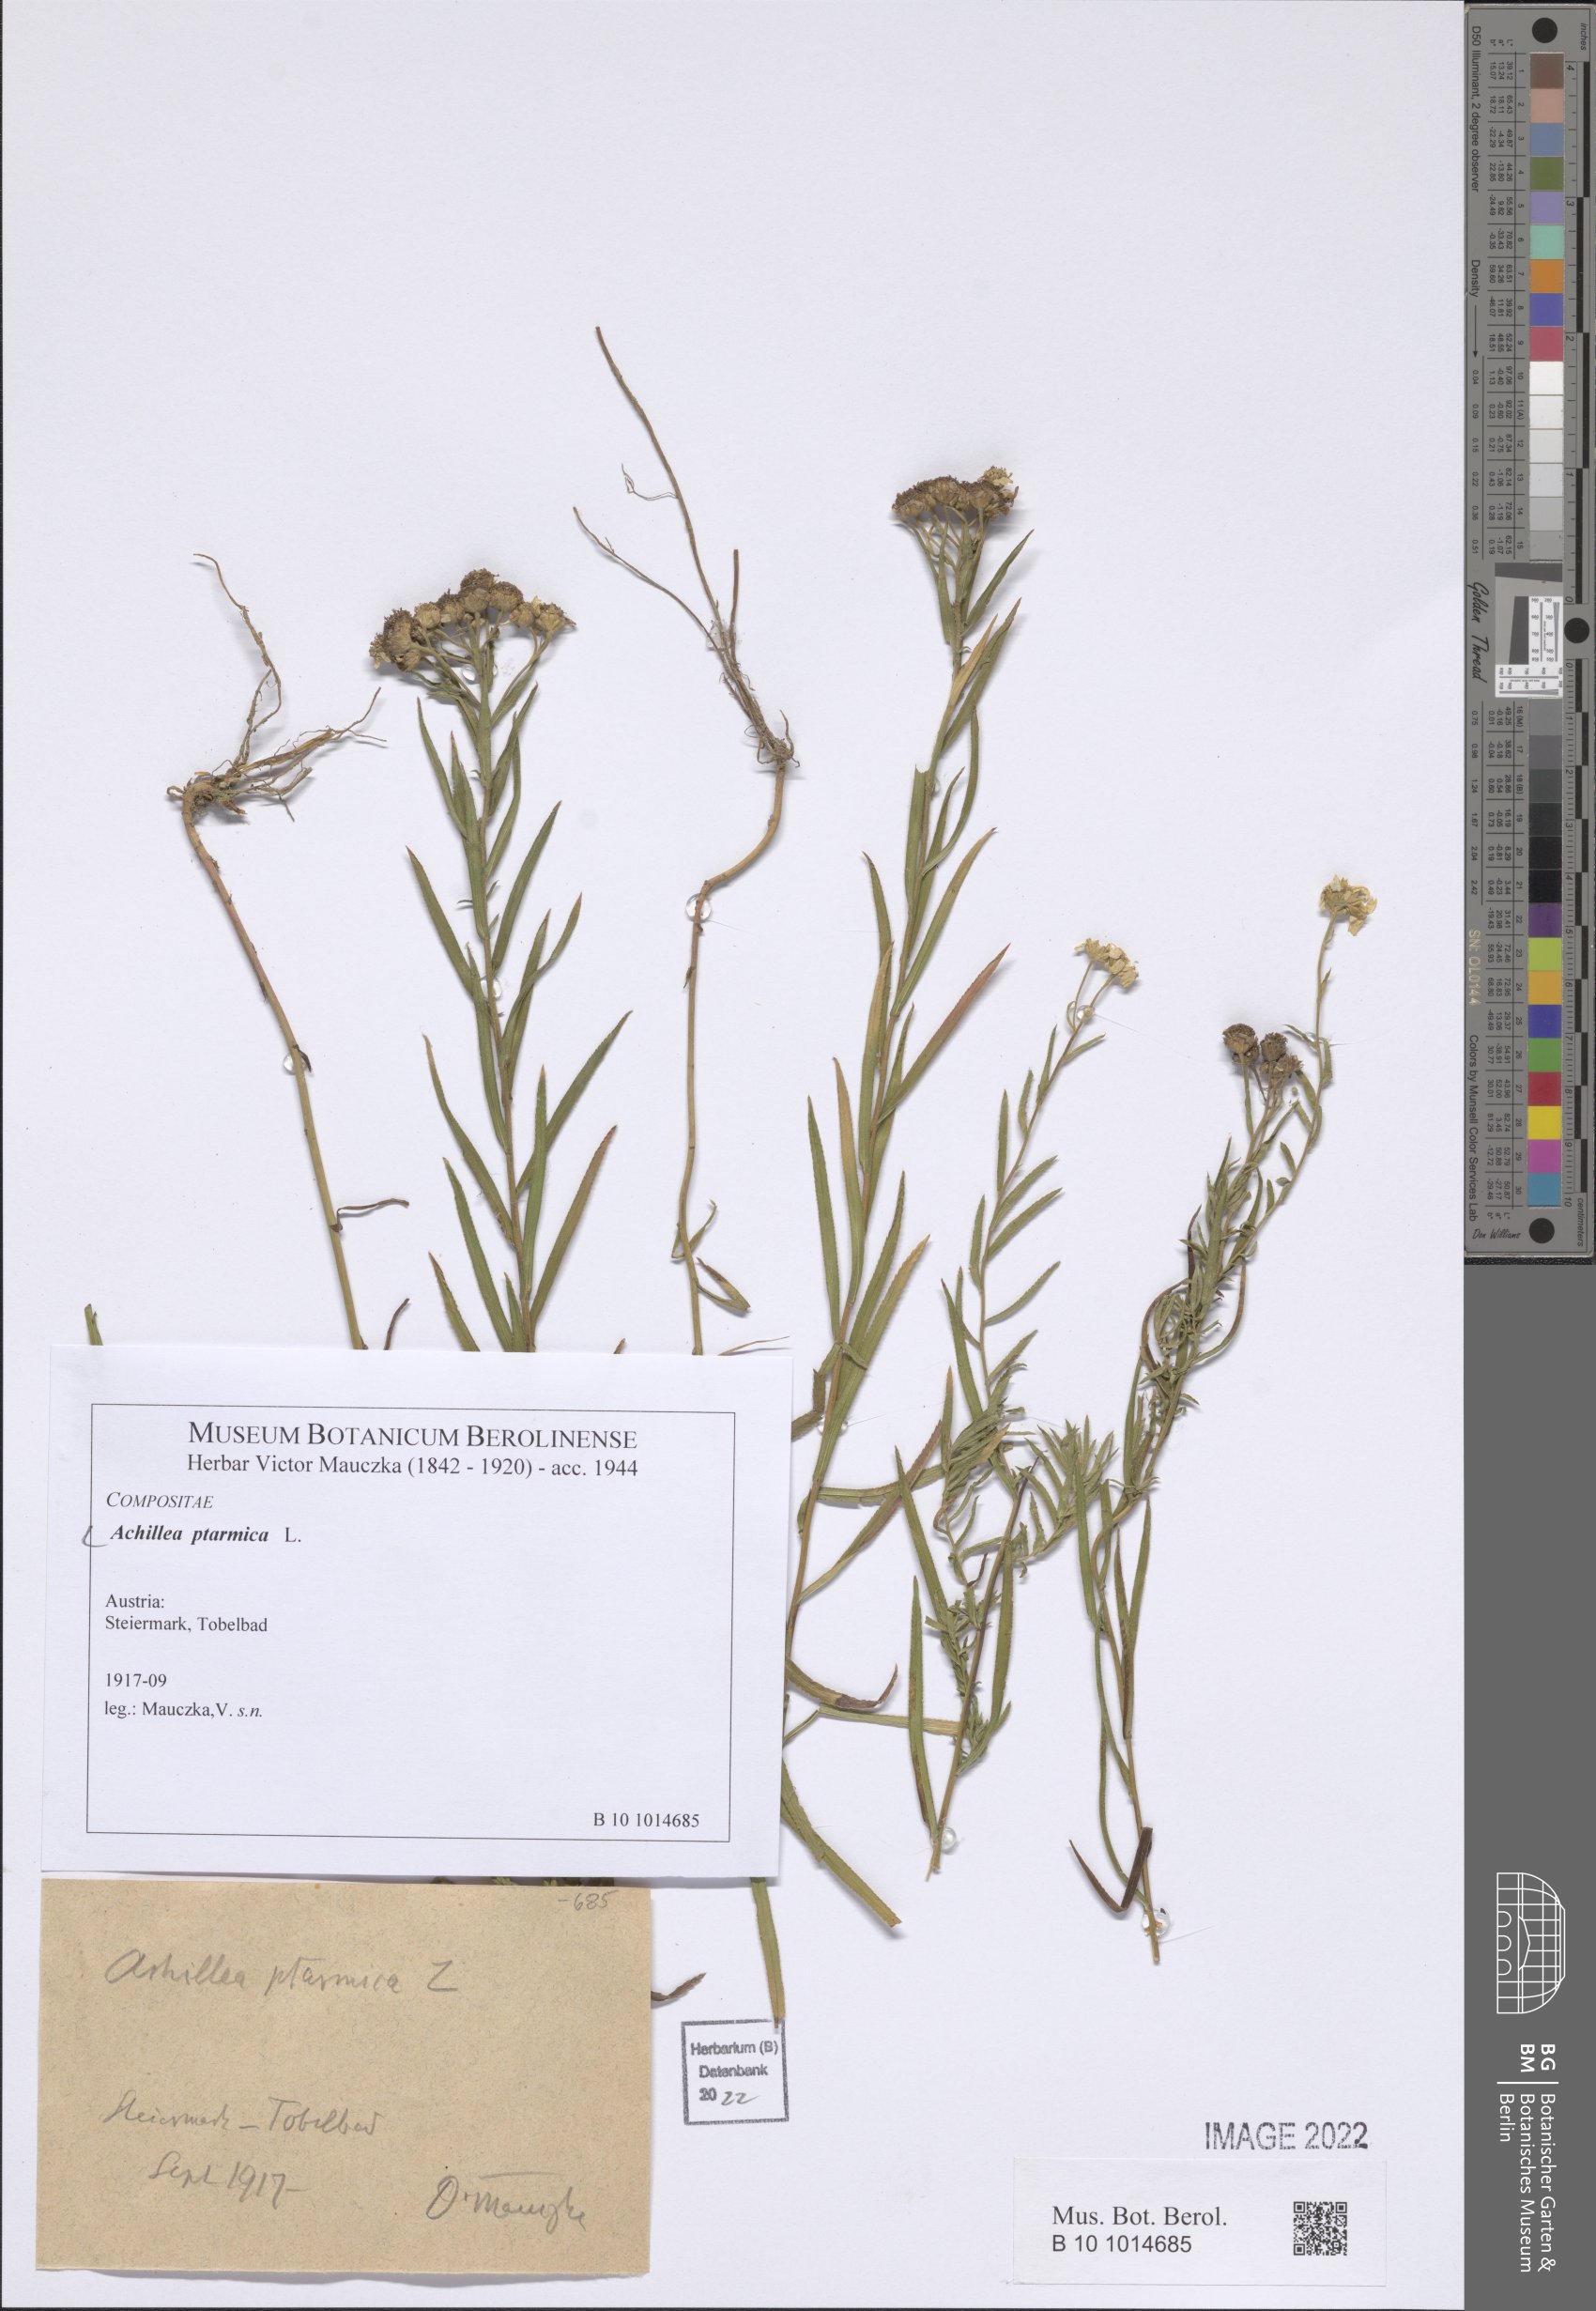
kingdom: Plantae
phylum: Tracheophyta
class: Magnoliopsida
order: Asterales
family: Asteraceae
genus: Achillea
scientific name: Achillea ptarmica
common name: Sneezeweed
